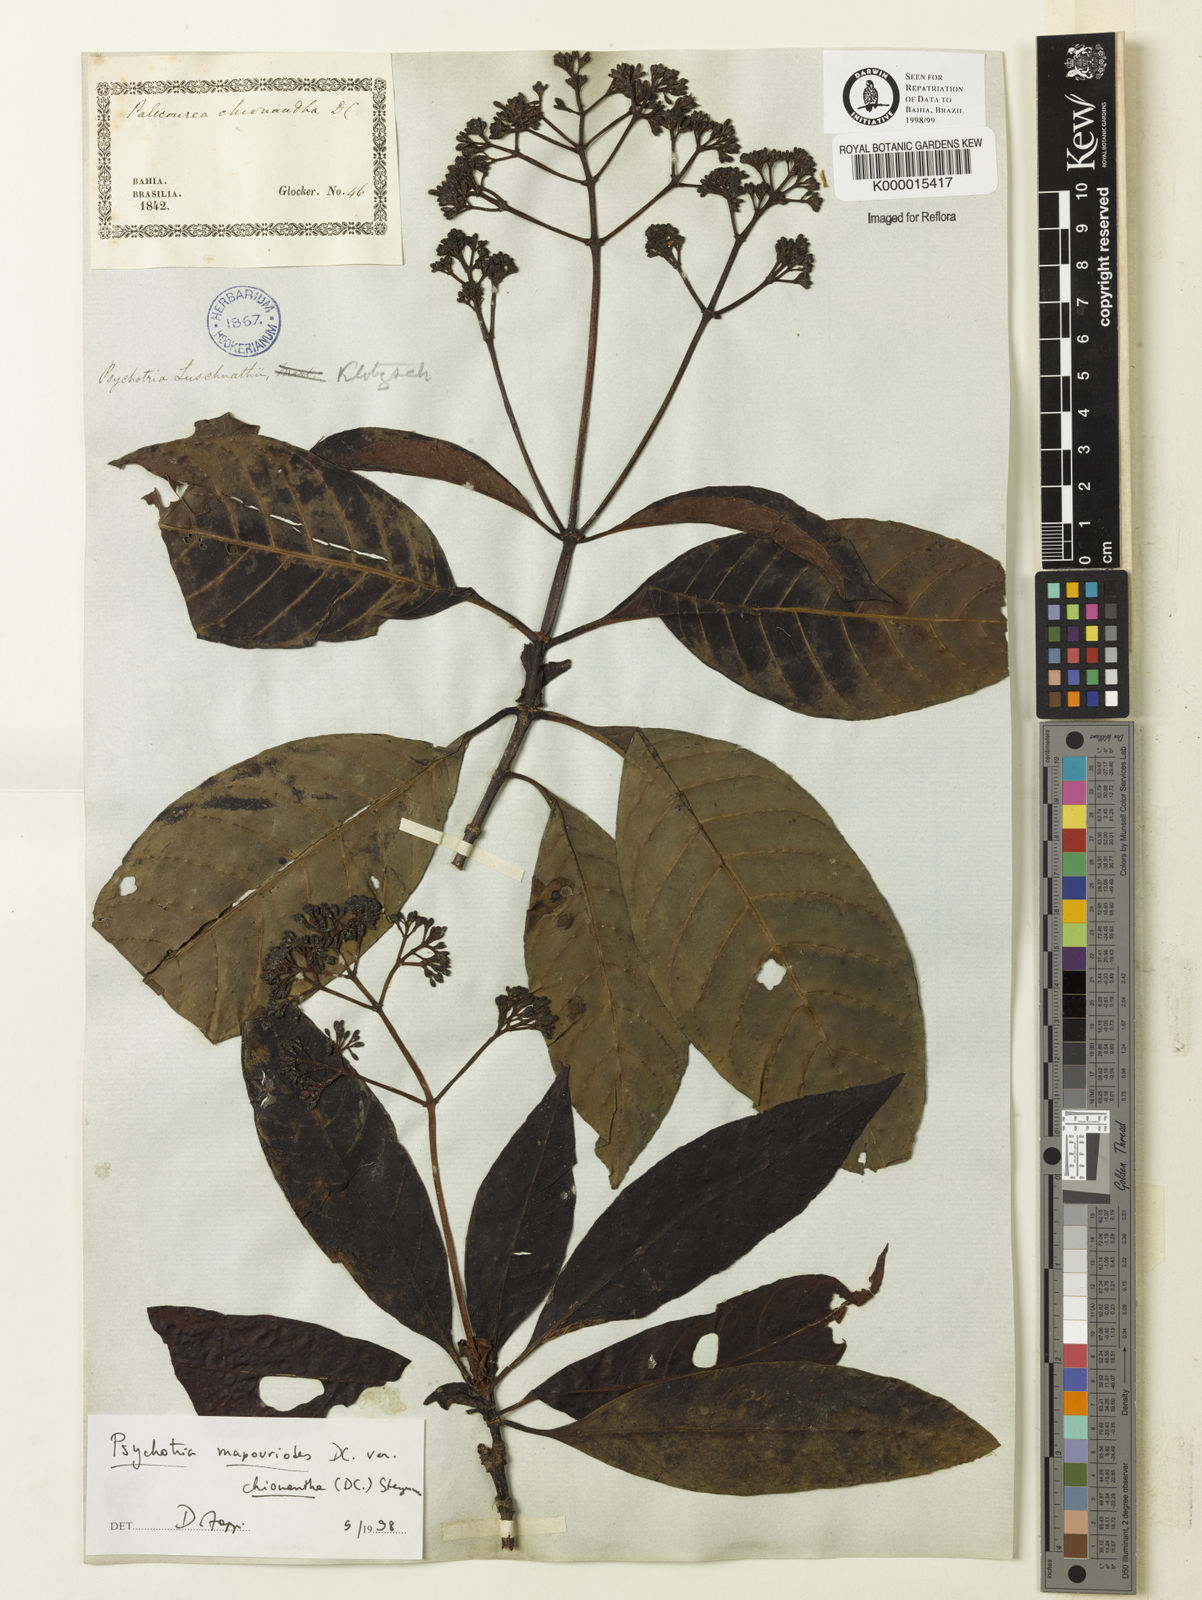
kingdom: Plantae
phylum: Tracheophyta
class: Magnoliopsida
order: Gentianales
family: Rubiaceae
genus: Psychotria
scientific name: Psychotria carthagenensis
